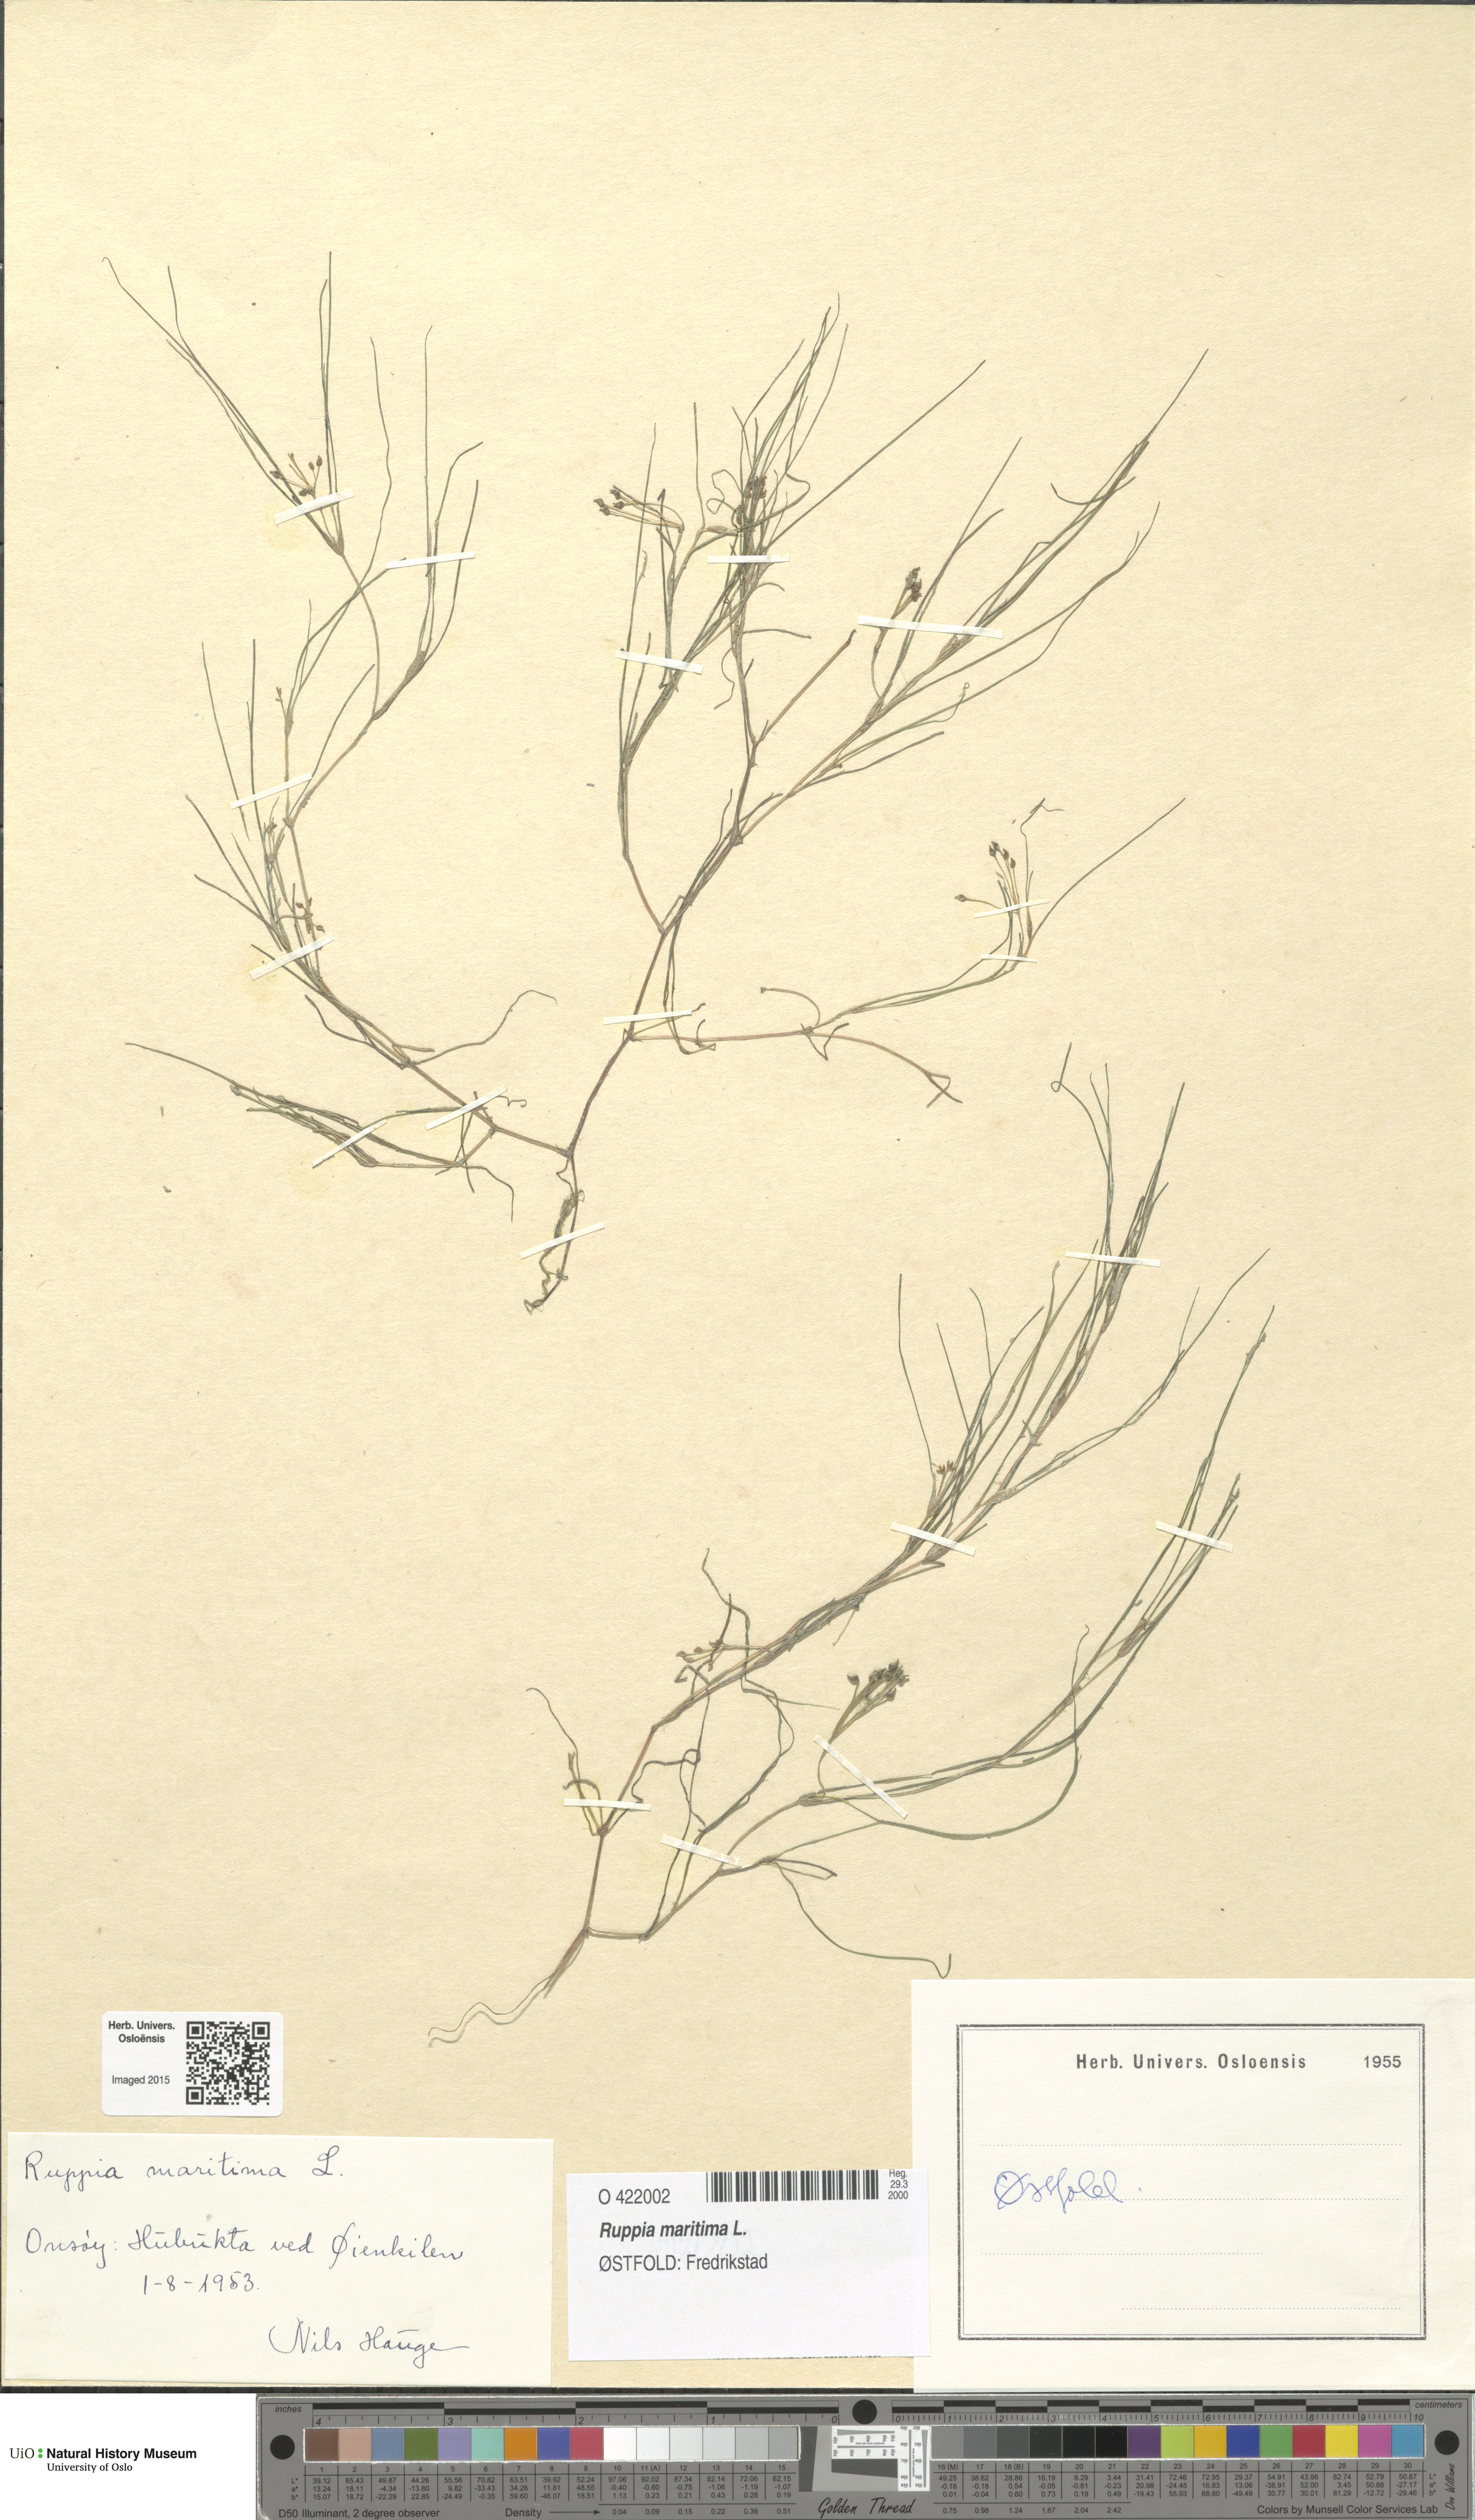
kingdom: Plantae
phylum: Tracheophyta
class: Liliopsida
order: Alismatales
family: Ruppiaceae
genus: Ruppia
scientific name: Ruppia maritima
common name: Beaked tasselweed
